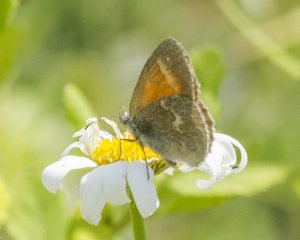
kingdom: Animalia
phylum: Arthropoda
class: Insecta
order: Lepidoptera
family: Nymphalidae
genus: Coenonympha
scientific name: Coenonympha tullia
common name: Large Heath
